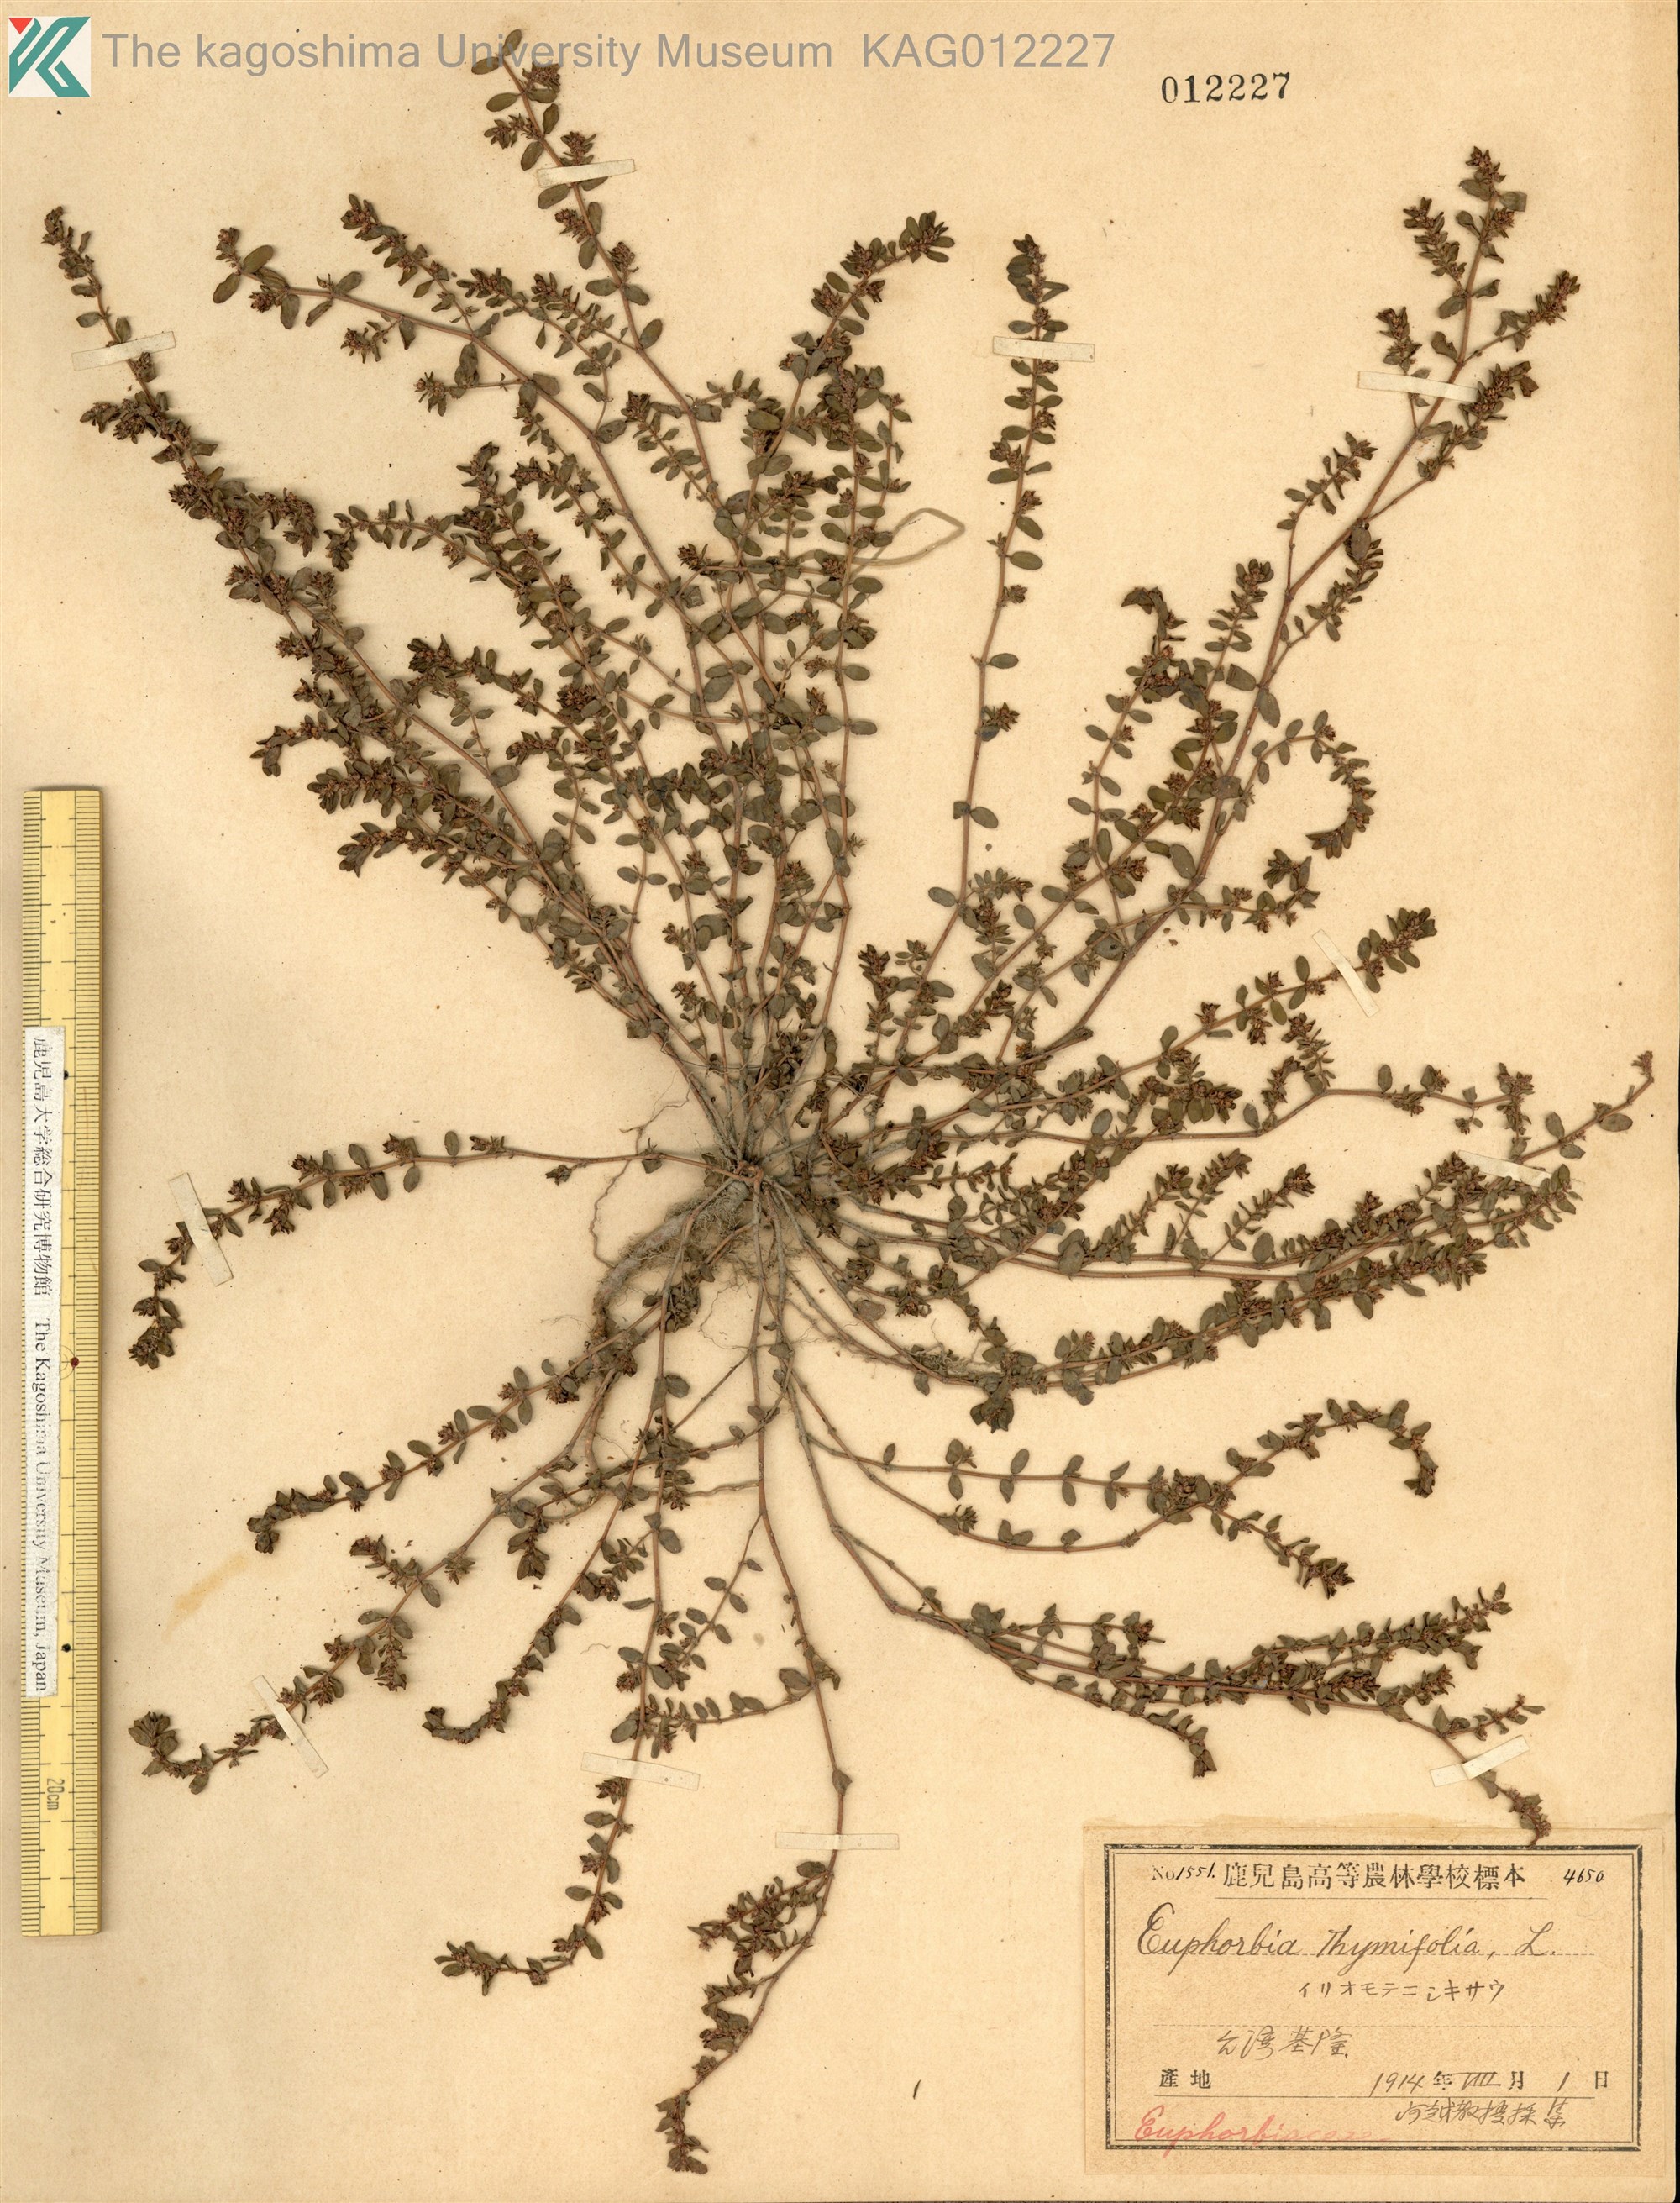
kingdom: Plantae
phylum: Tracheophyta
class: Magnoliopsida
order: Malpighiales
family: Euphorbiaceae
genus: Euphorbia
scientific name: Euphorbia thymifolia
